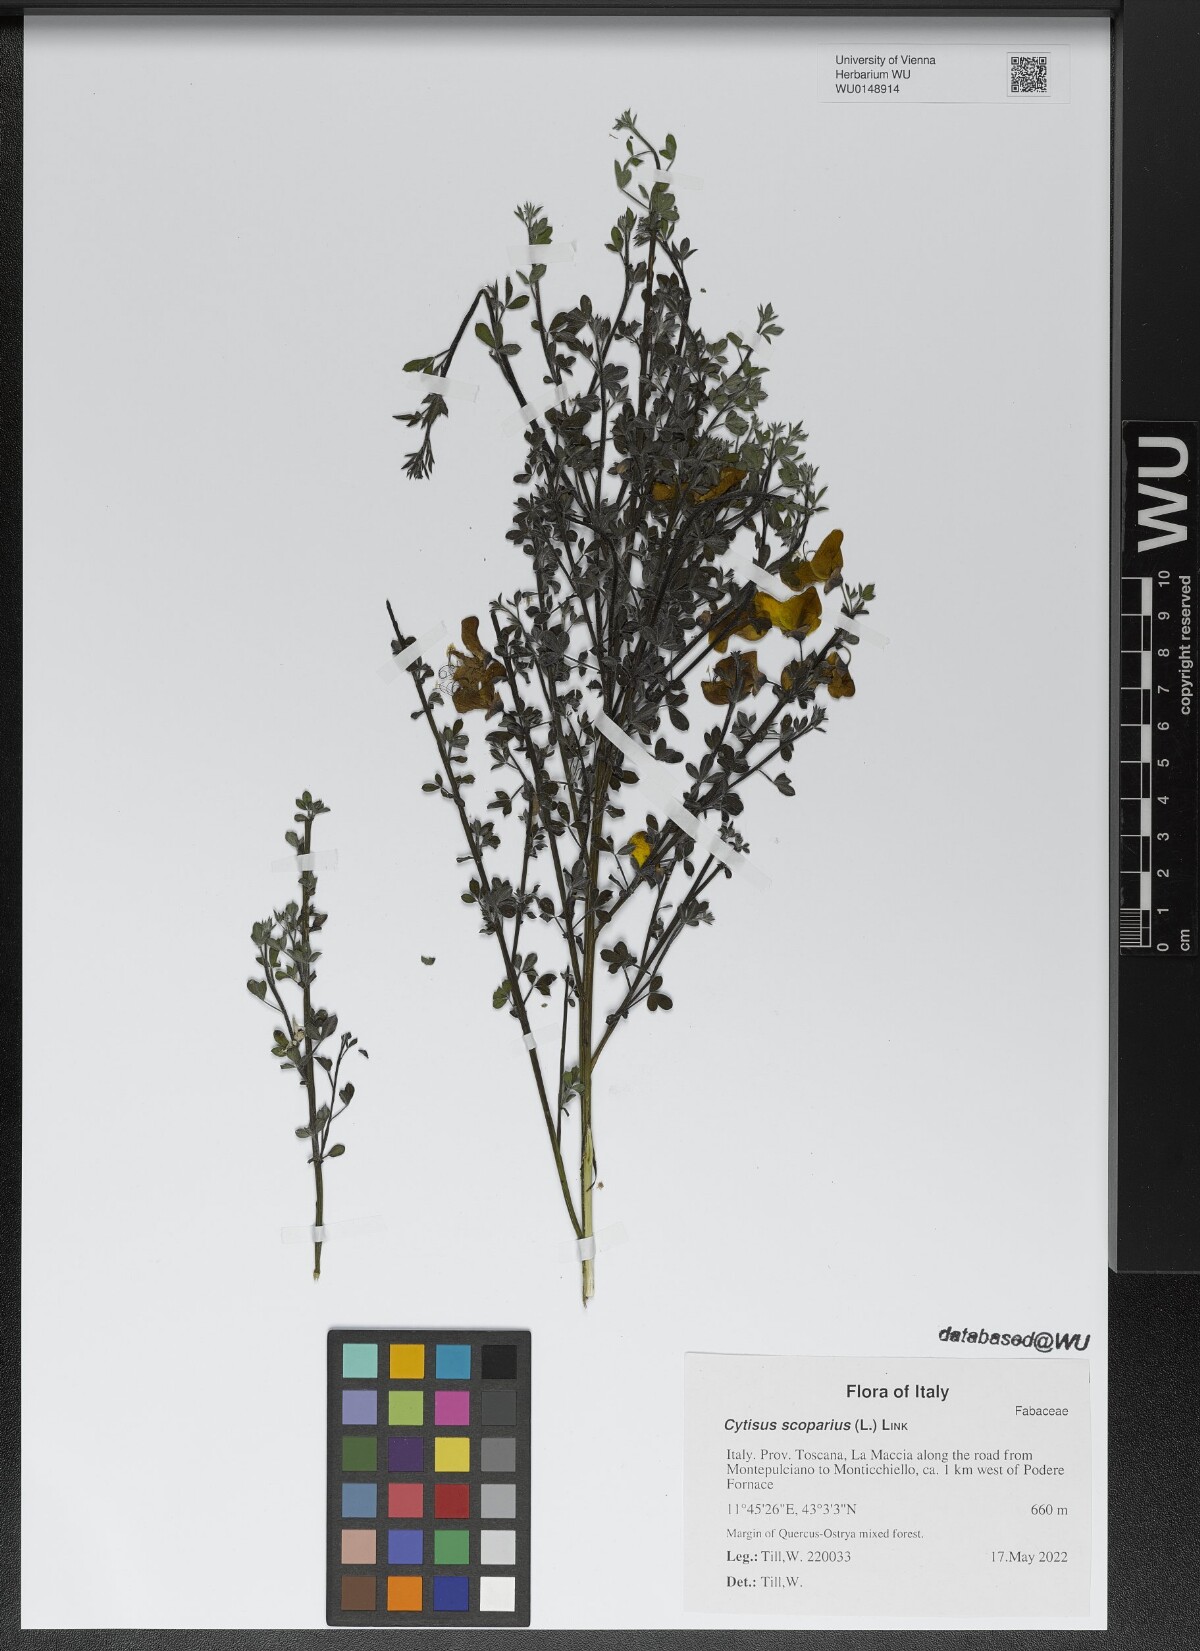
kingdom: Plantae
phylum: Tracheophyta
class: Magnoliopsida
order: Fabales
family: Fabaceae
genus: Cytisus
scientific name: Cytisus scoparius
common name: Scotch broom
